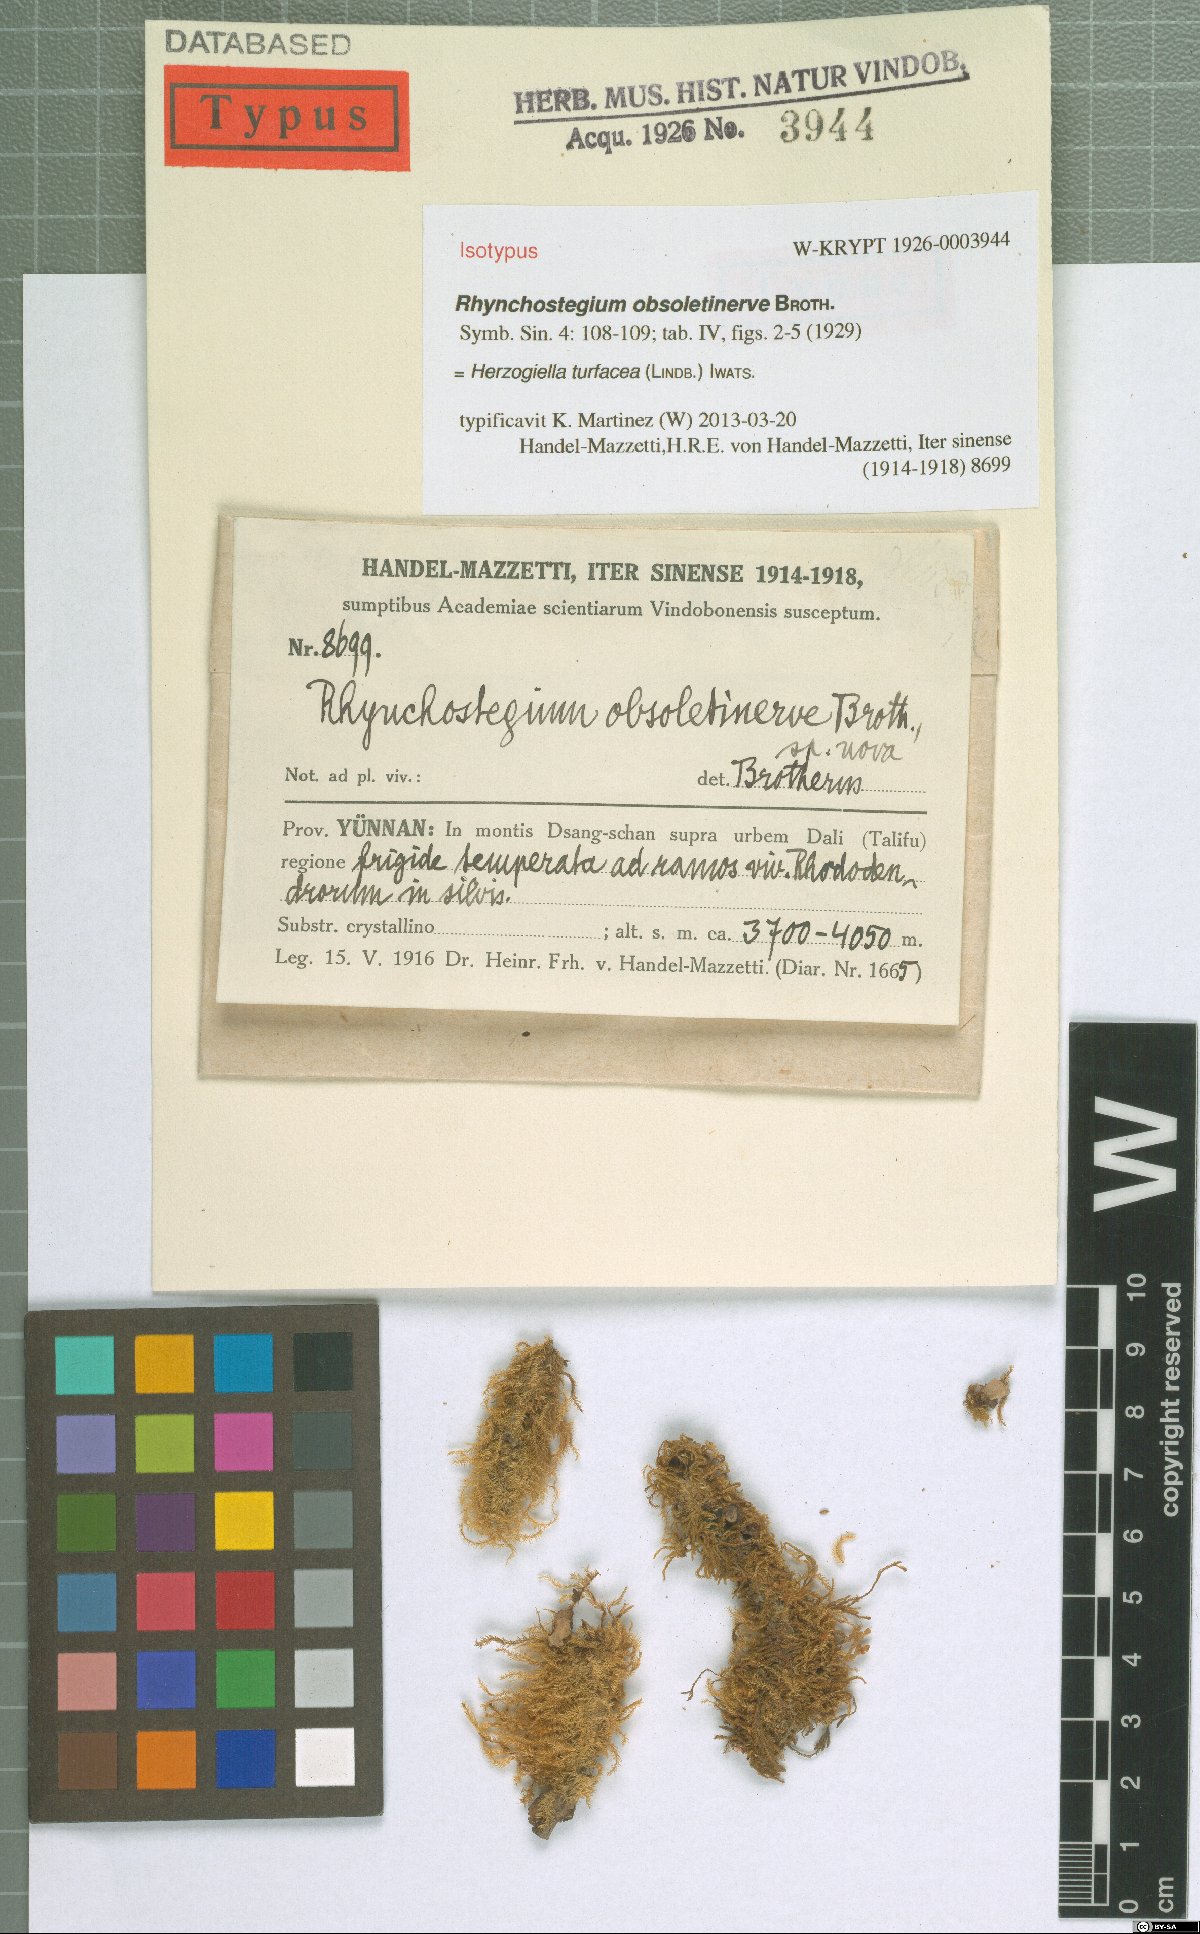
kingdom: Plantae
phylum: Bryophyta
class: Bryopsida
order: Hypnales
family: Plagiotheciaceae
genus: Herzogiella
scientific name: Herzogiella turfacea
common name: Flat stump moss
